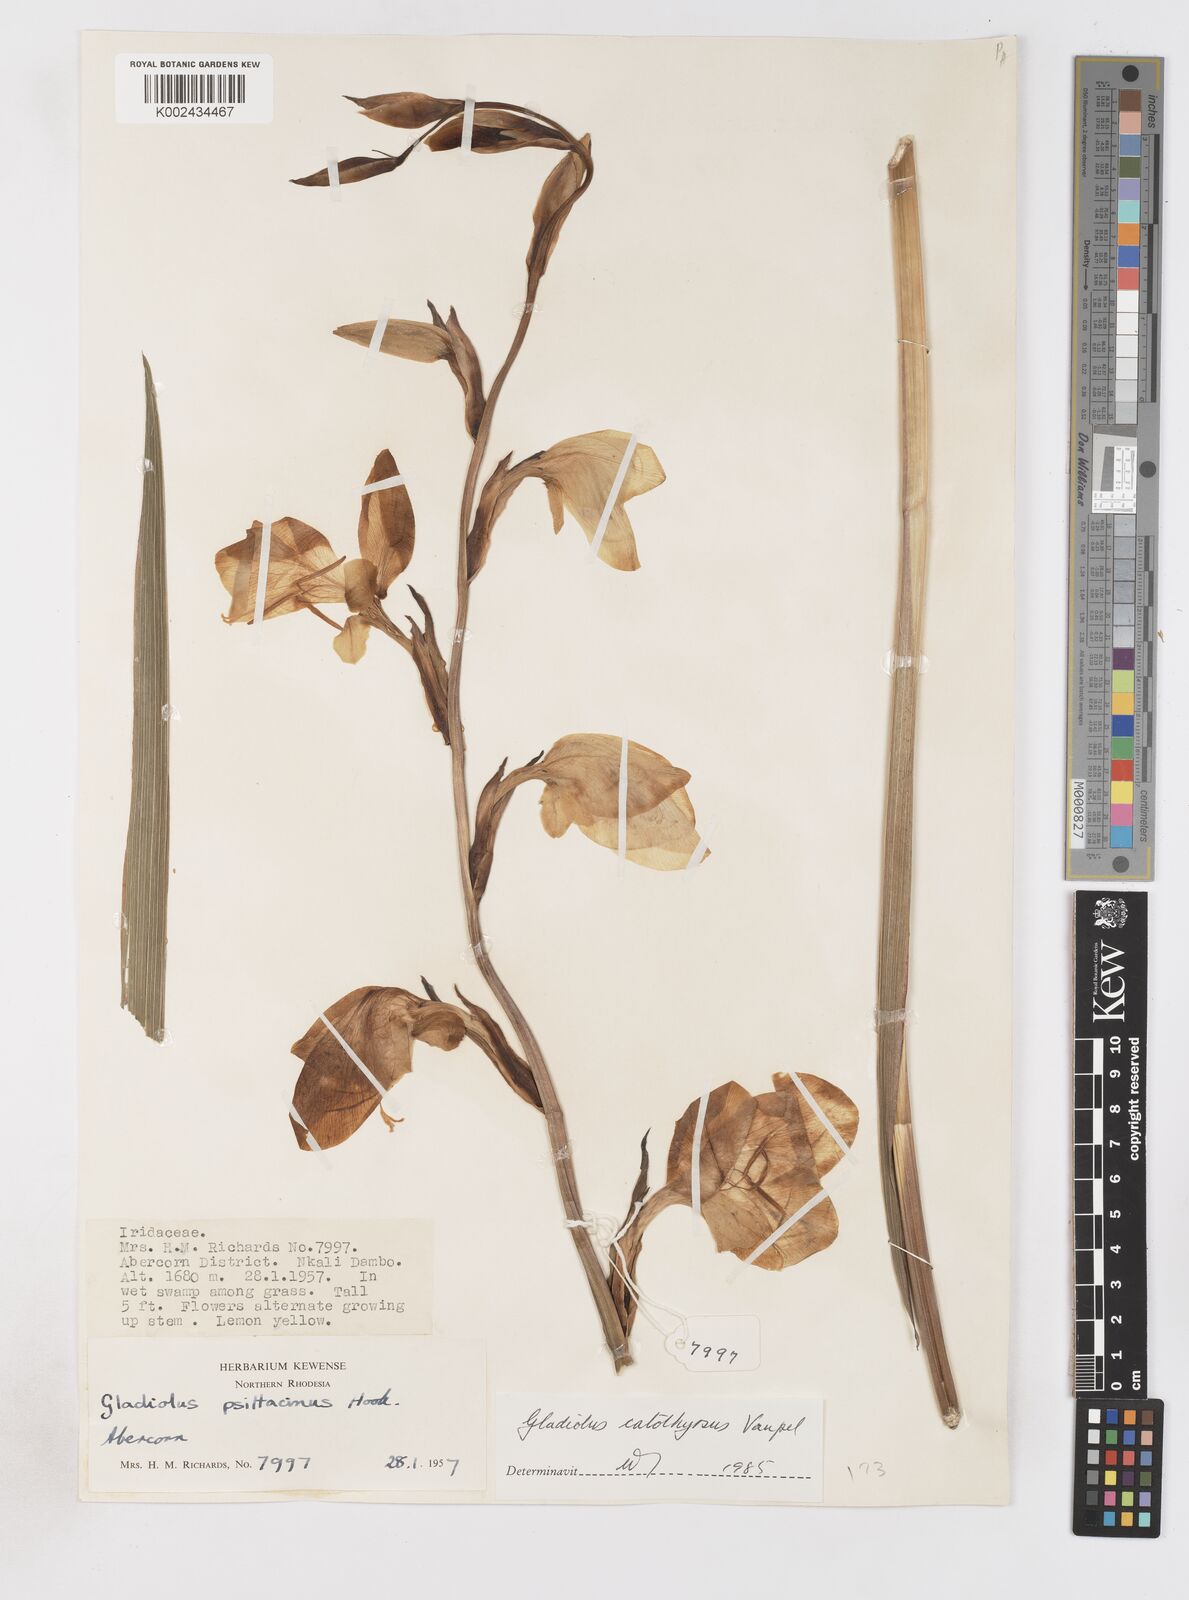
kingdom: Plantae
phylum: Tracheophyta
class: Liliopsida
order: Asparagales
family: Iridaceae
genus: Gladiolus
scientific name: Gladiolus dalenii
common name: Cornflag
